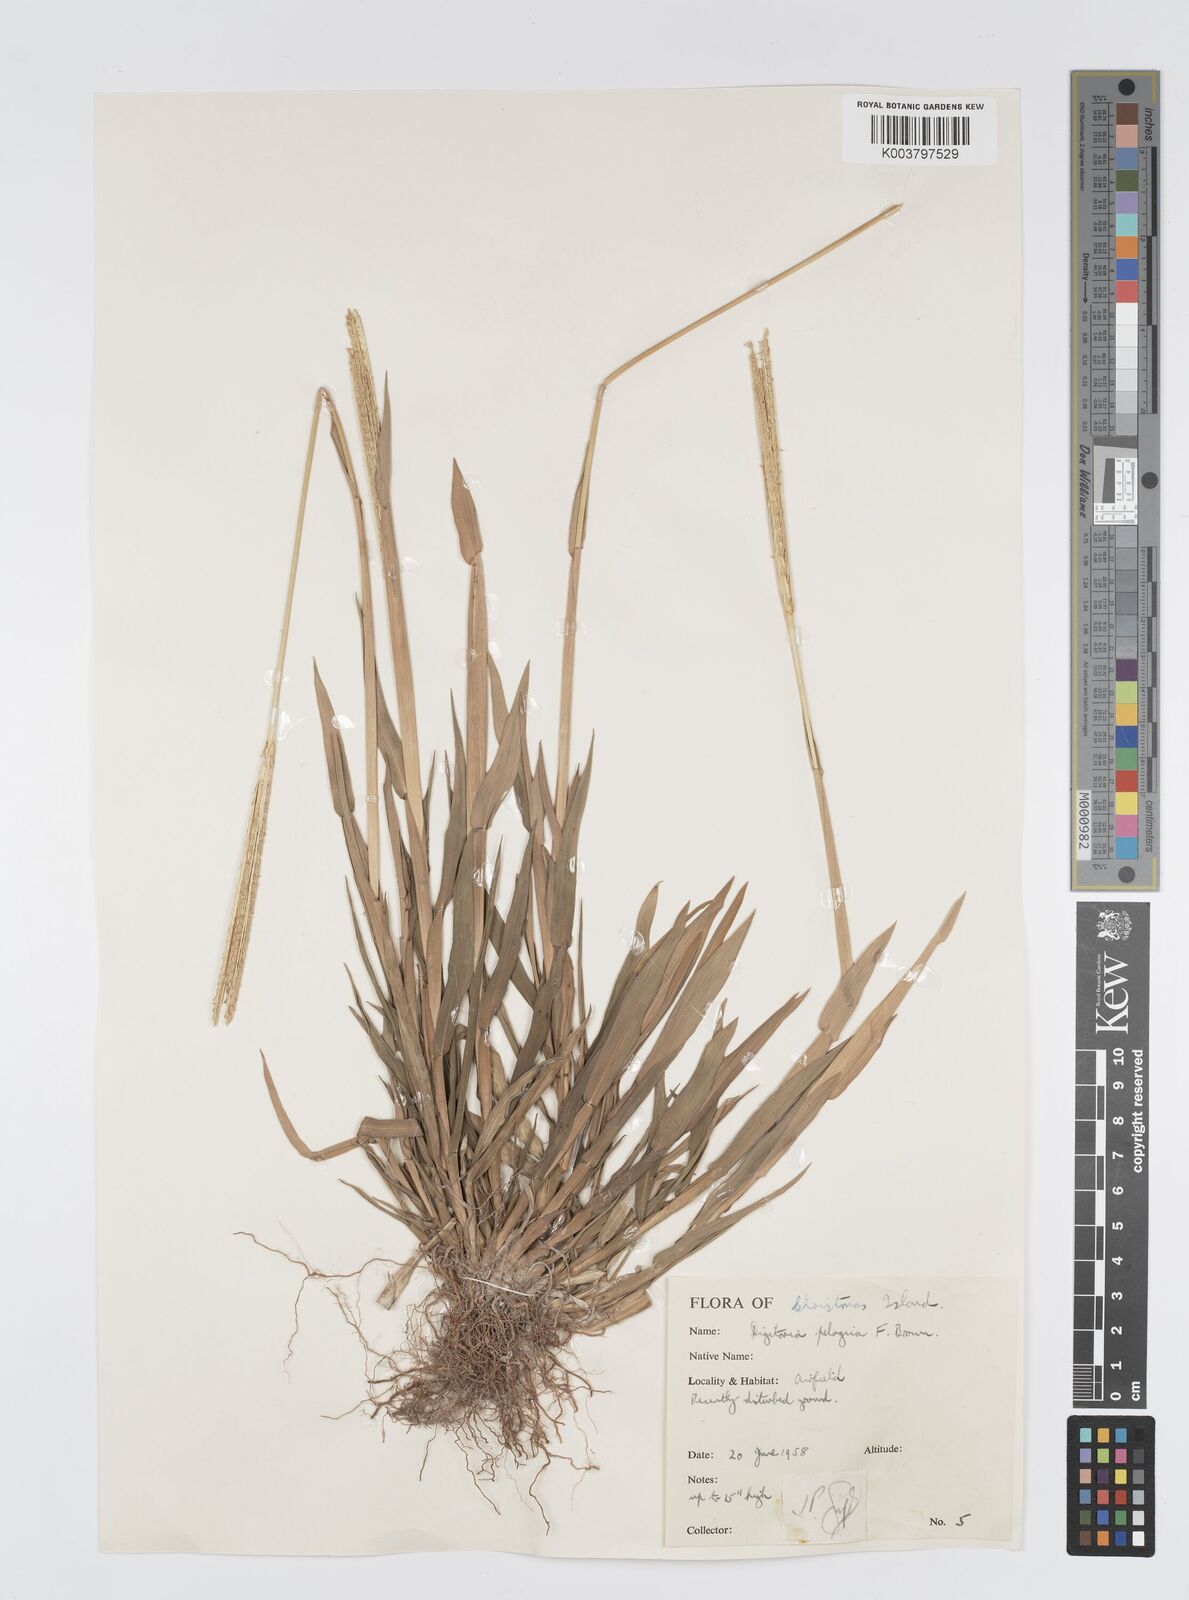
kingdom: Plantae
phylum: Tracheophyta
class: Liliopsida
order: Poales
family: Poaceae
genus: Digitaria
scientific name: Digitaria stenotaphrodes
